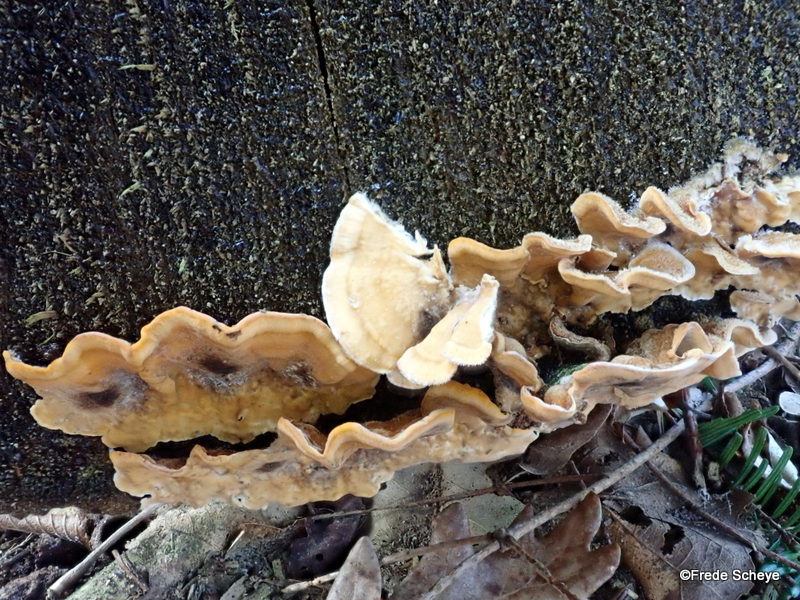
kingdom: Fungi
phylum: Basidiomycota
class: Agaricomycetes
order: Russulales
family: Stereaceae
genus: Stereum
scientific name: Stereum hirsutum
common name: håret lædersvamp
